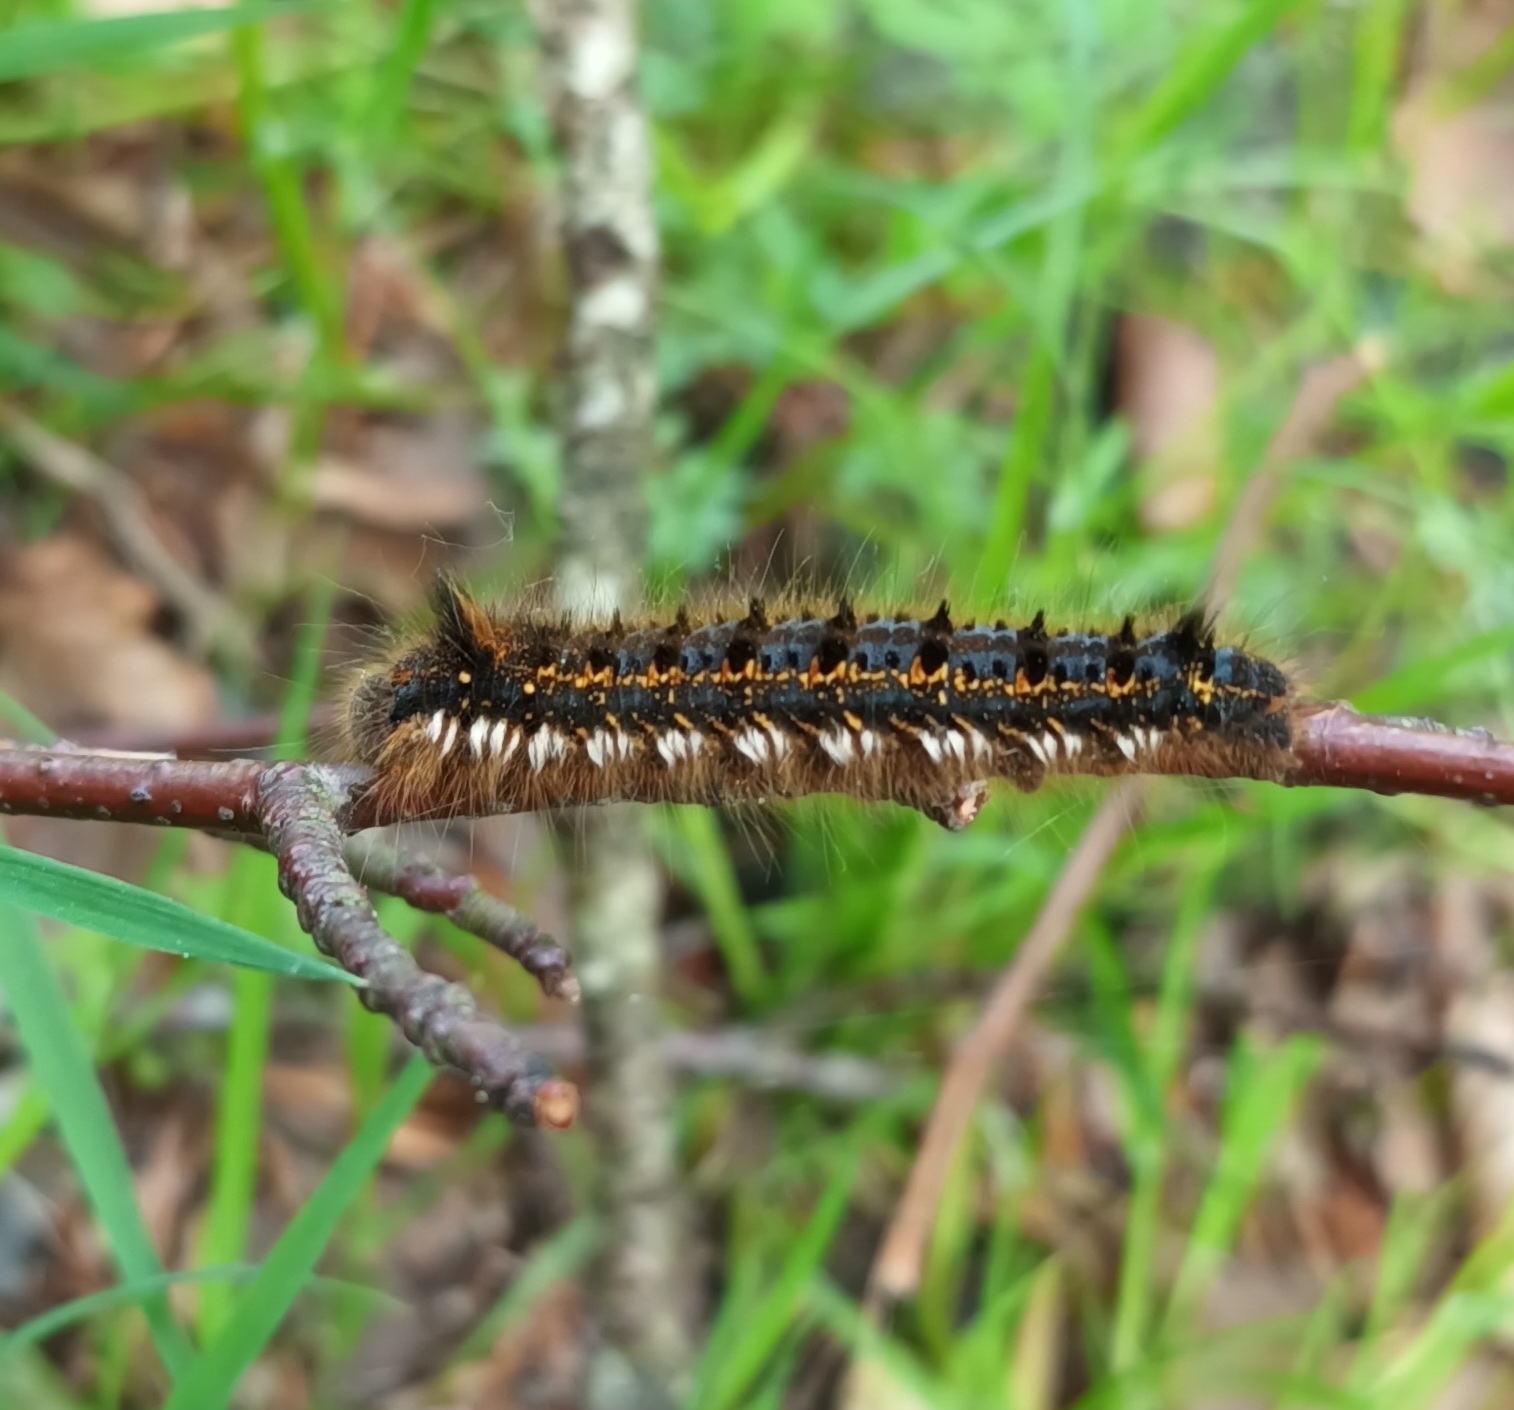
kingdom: Animalia
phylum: Arthropoda
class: Insecta
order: Lepidoptera
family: Lasiocampidae
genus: Euthrix
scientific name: Euthrix potatoria
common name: Græsspinder
